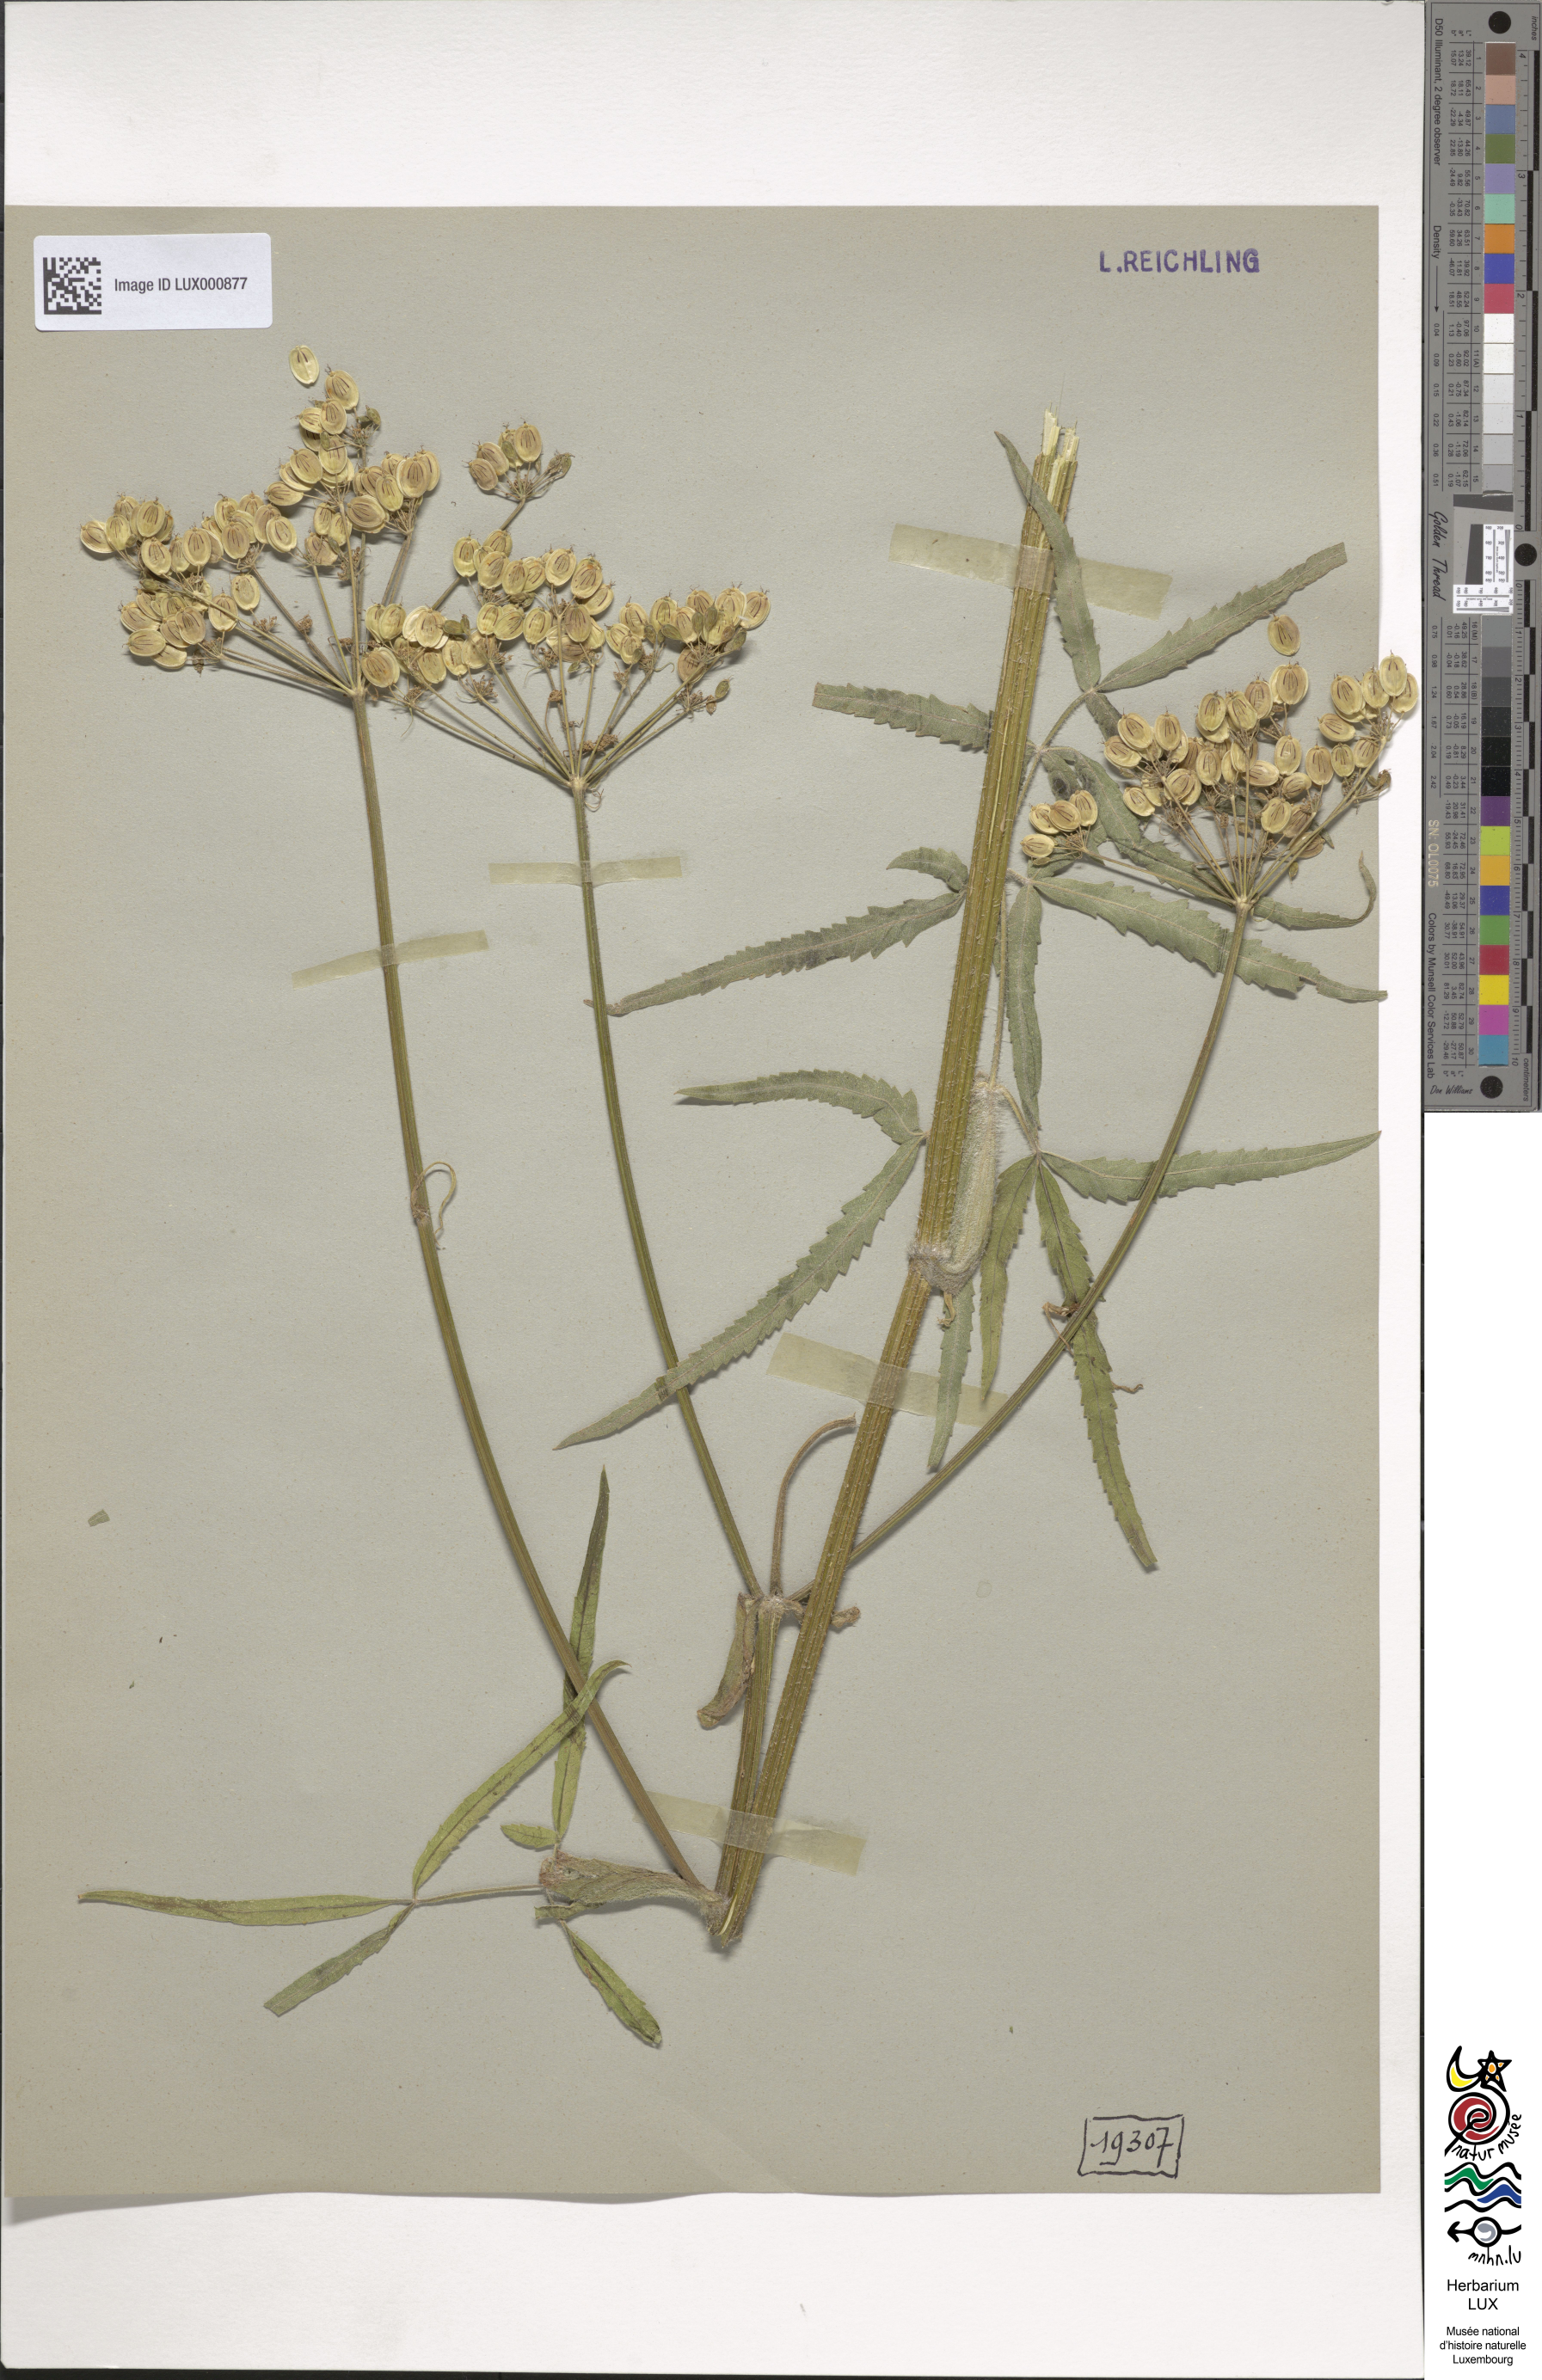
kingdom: Plantae
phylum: Tracheophyta
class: Magnoliopsida
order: Apiales
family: Apiaceae
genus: Heracleum
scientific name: Heracleum sphondylium
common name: Hogweed
